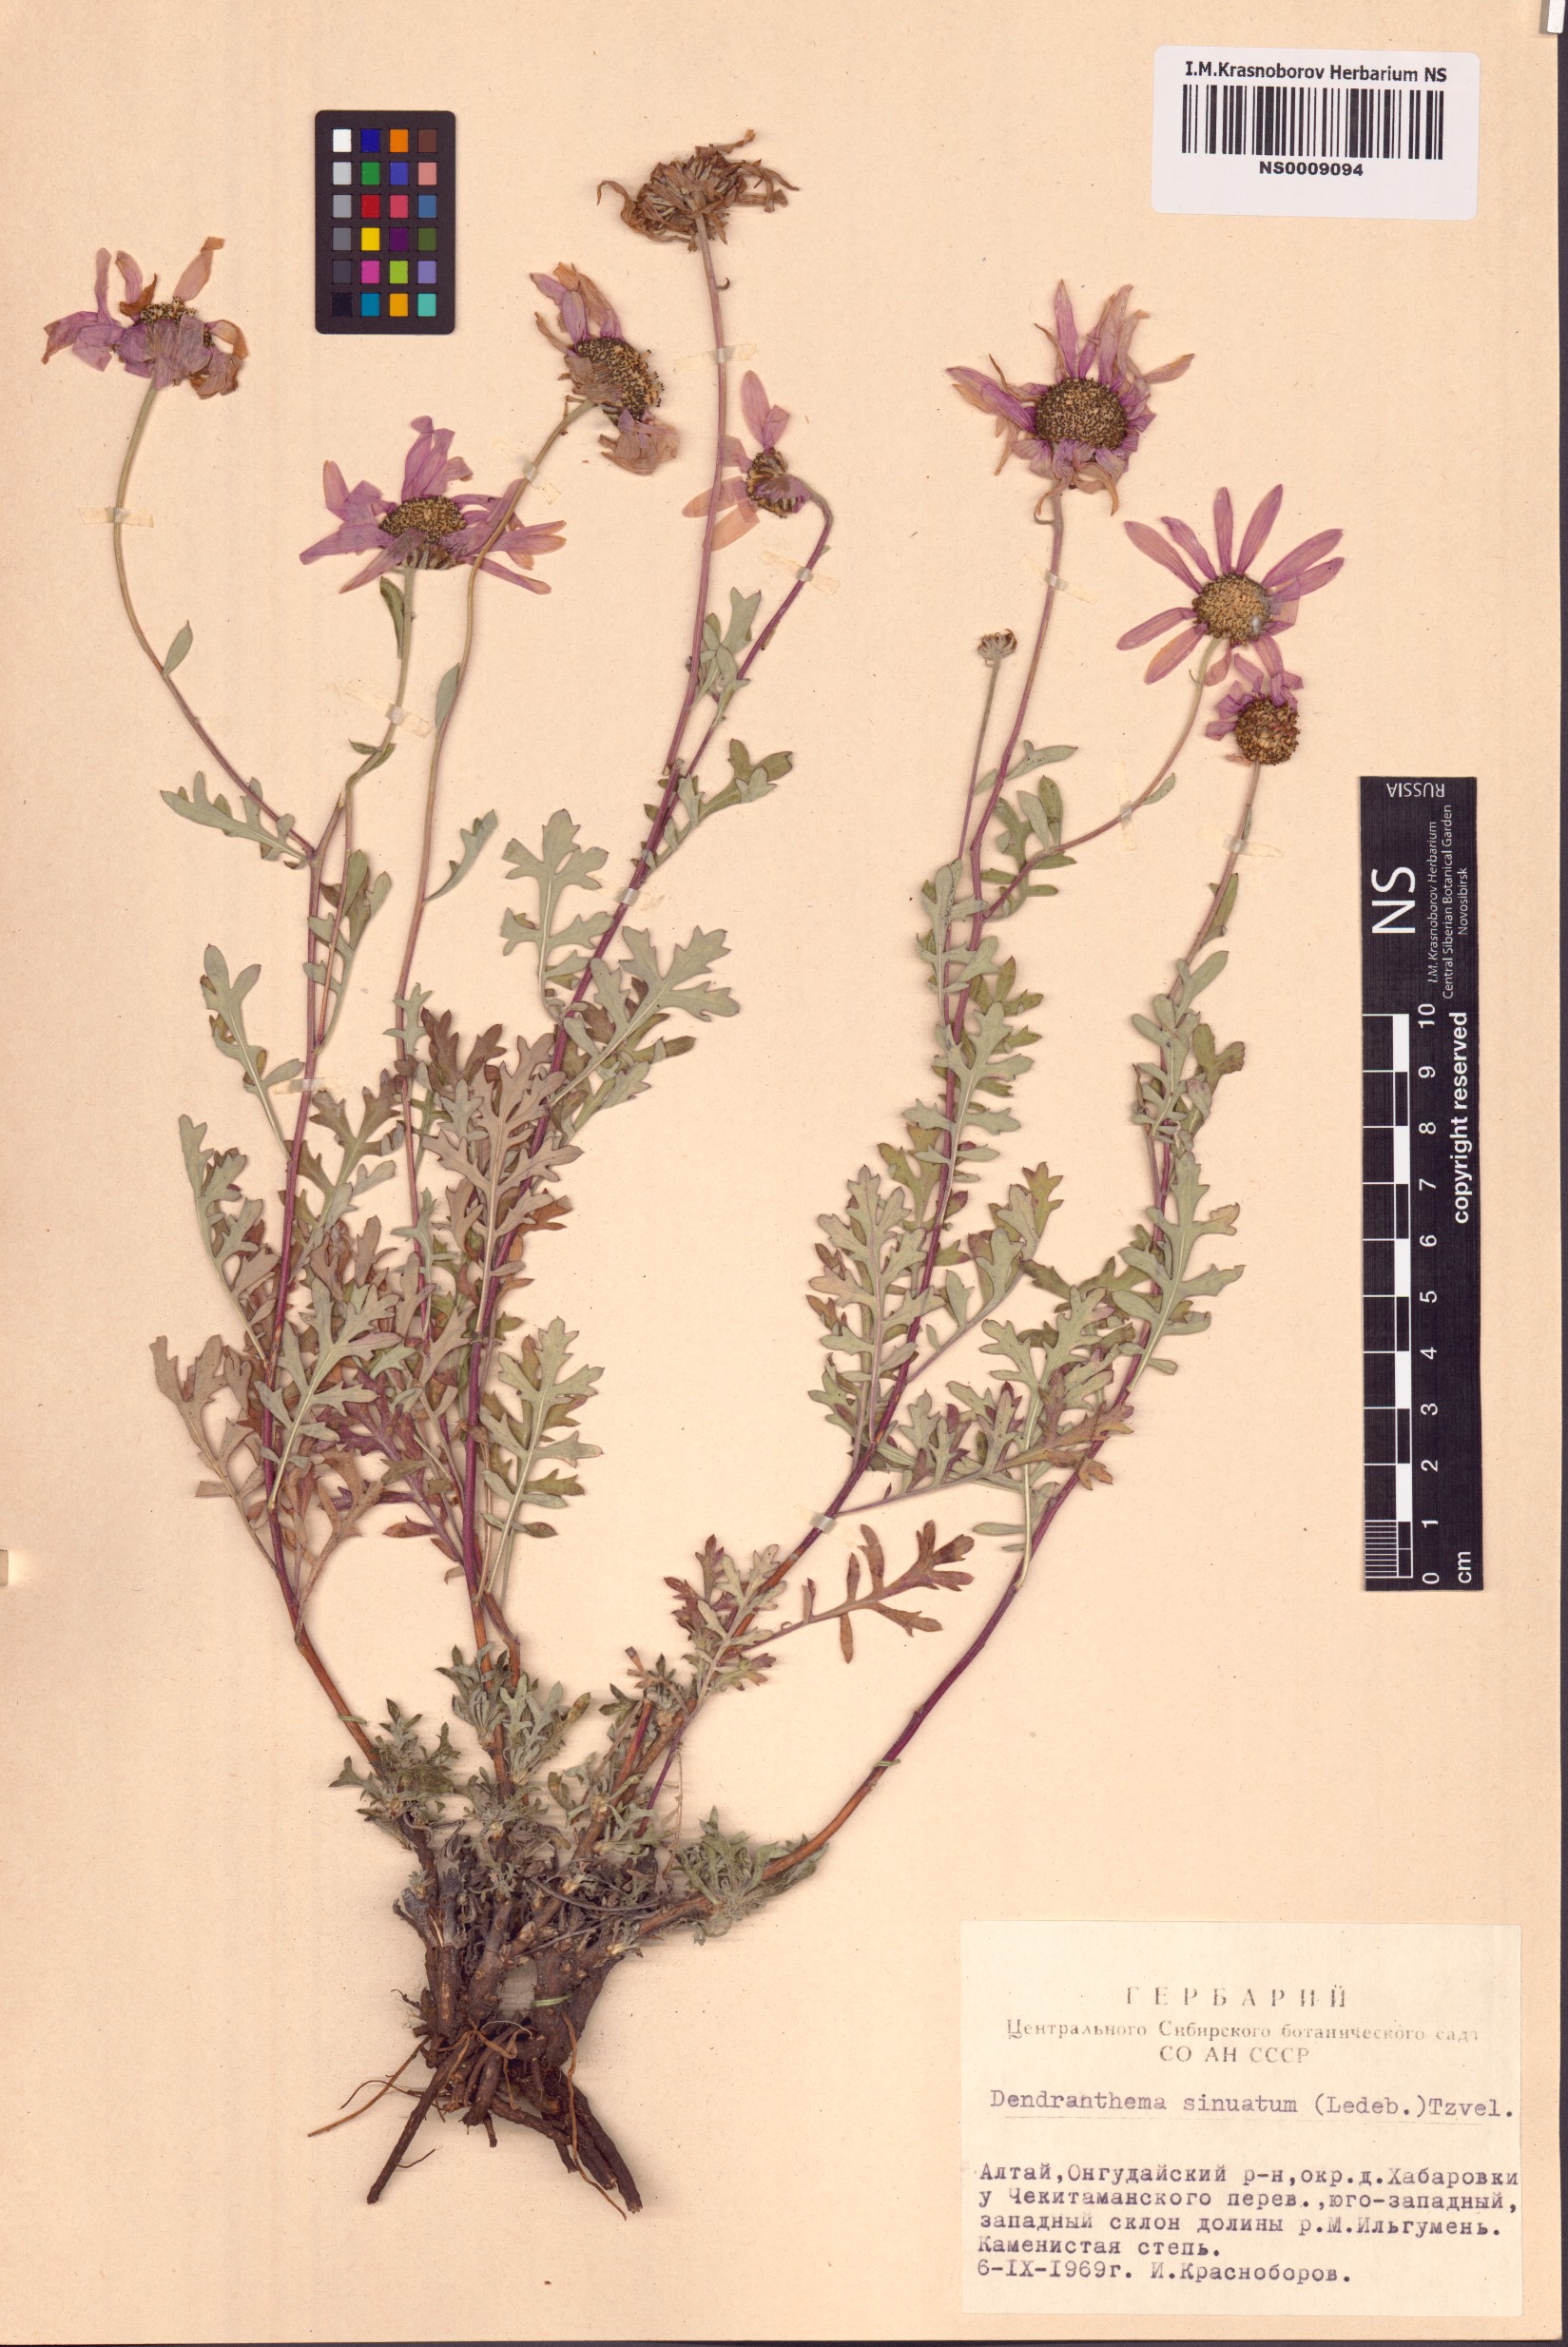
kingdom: Plantae
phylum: Tracheophyta
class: Magnoliopsida
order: Asterales
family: Asteraceae
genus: Chrysanthemum
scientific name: Chrysanthemum sinuatum
